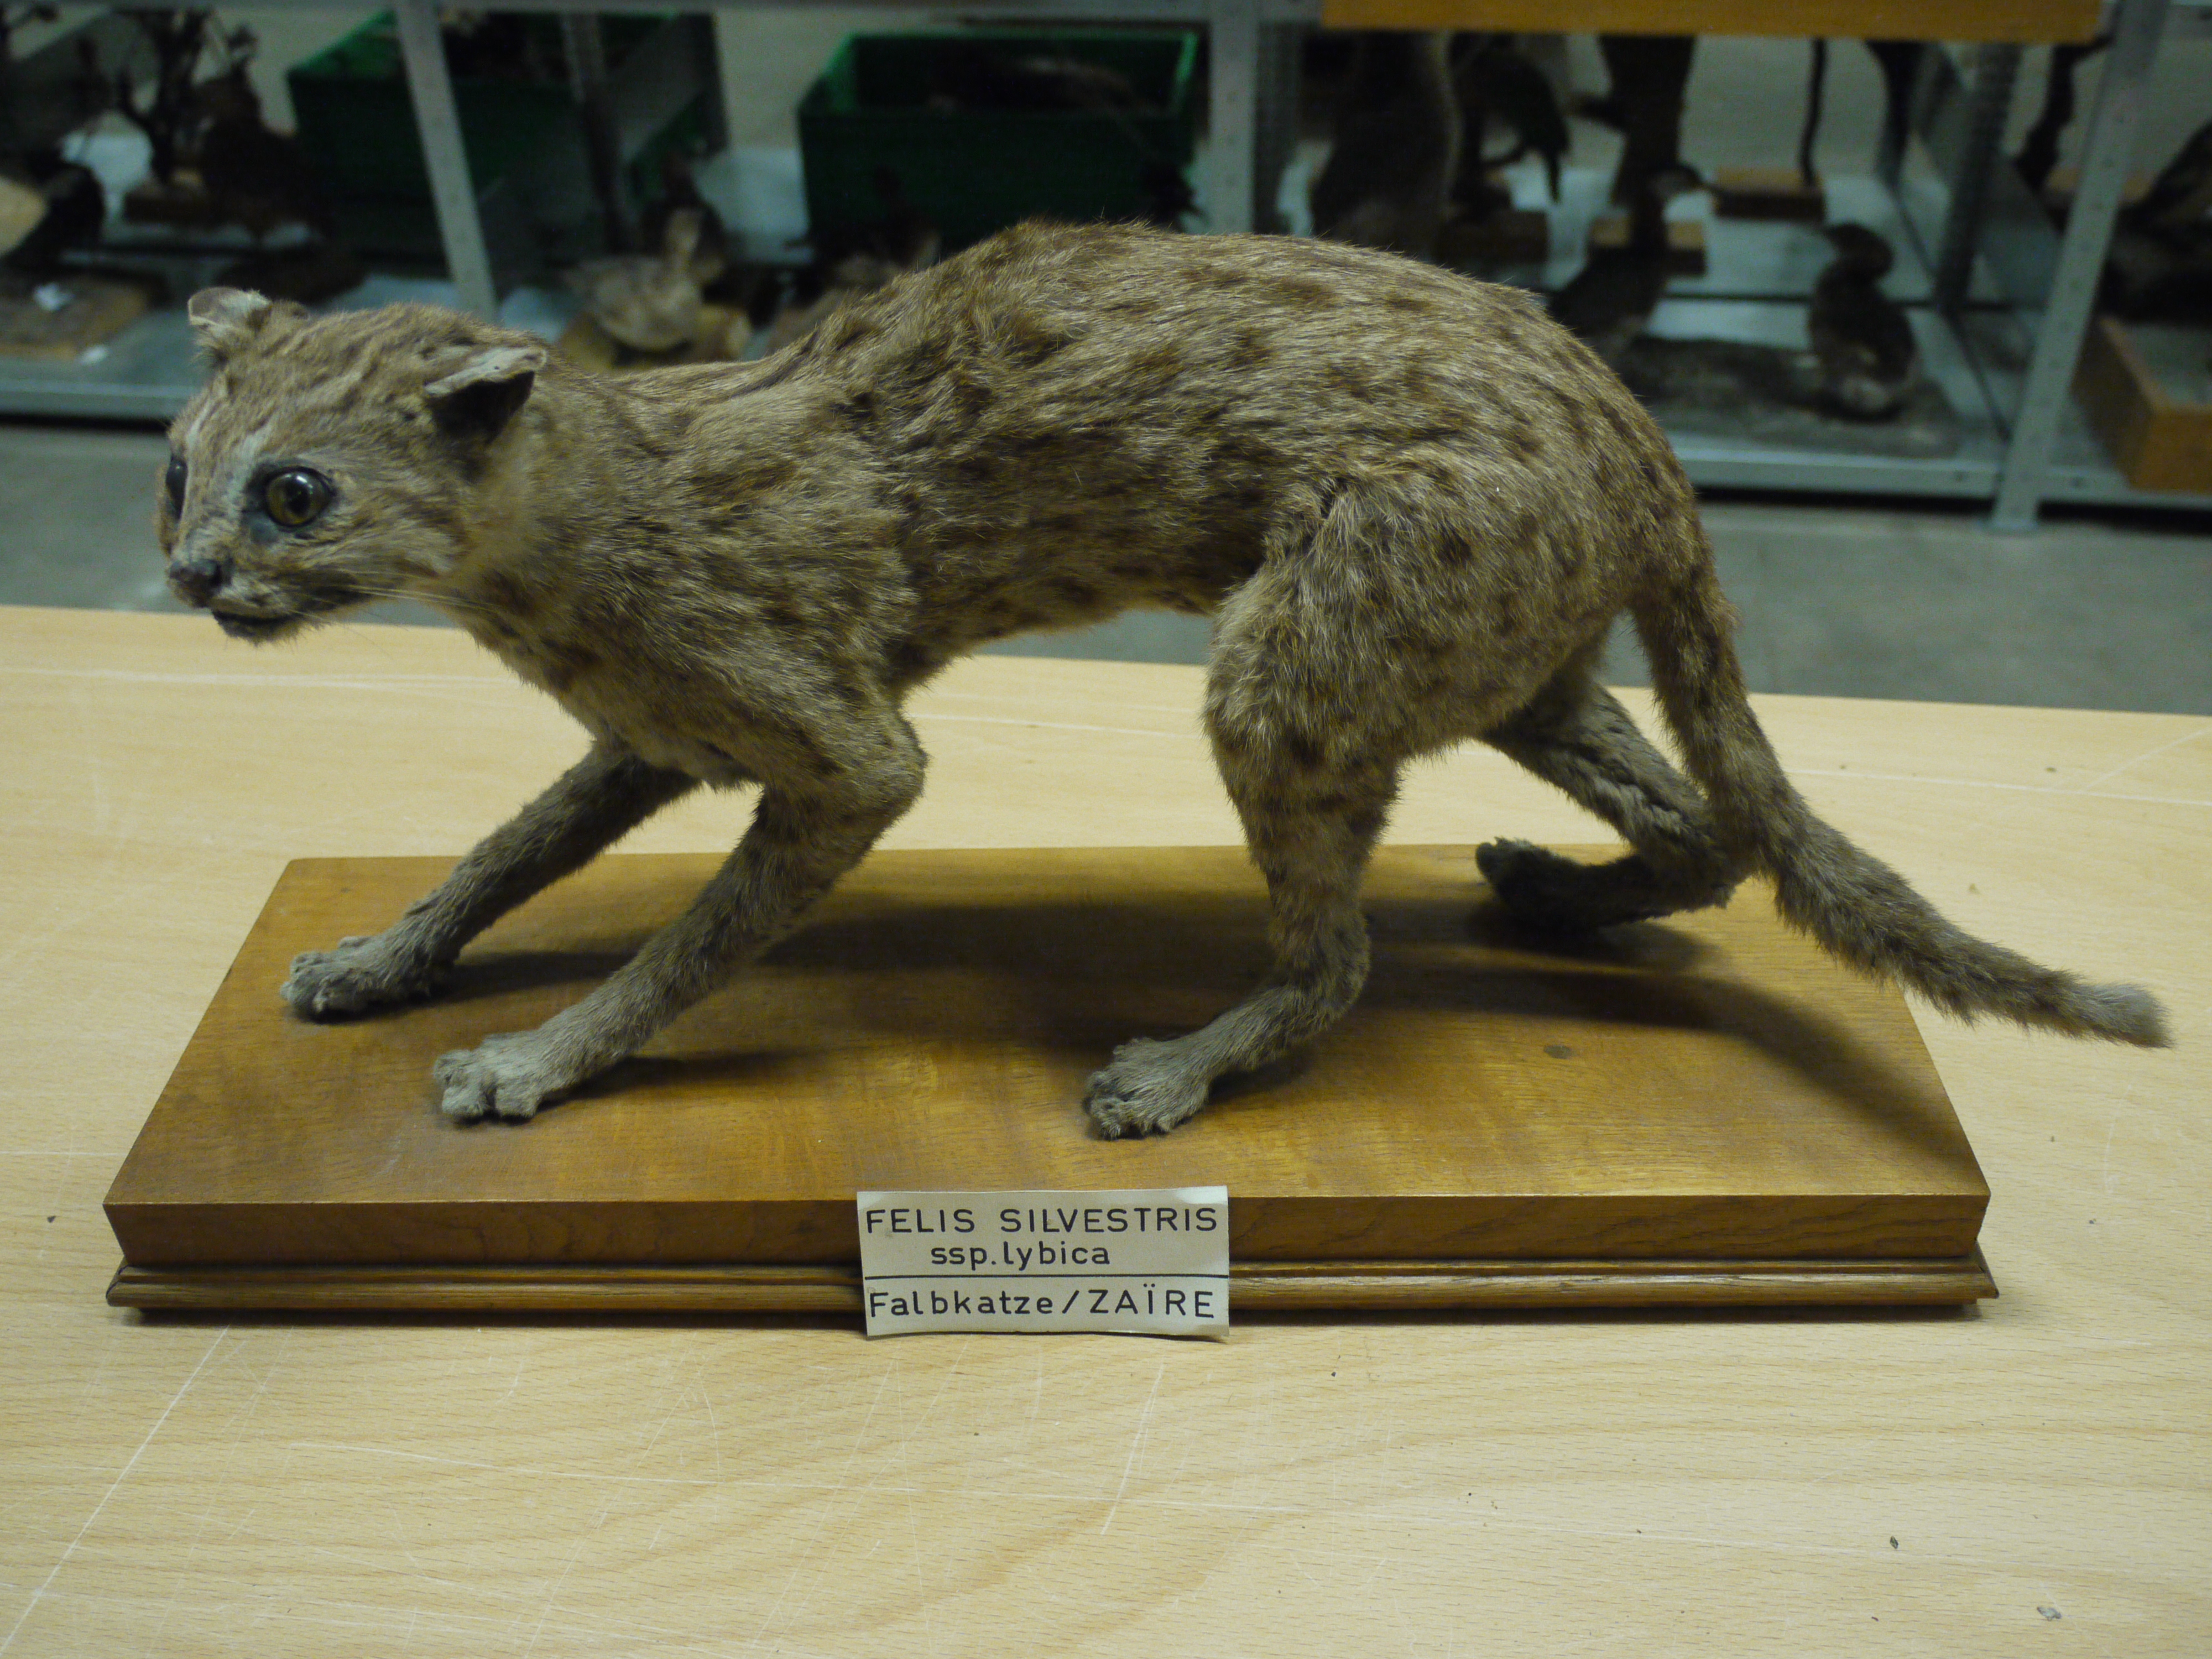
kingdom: Animalia
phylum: Chordata
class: Mammalia
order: Carnivora
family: Felidae
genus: Felis
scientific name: Felis silvestris
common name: Wildcat
